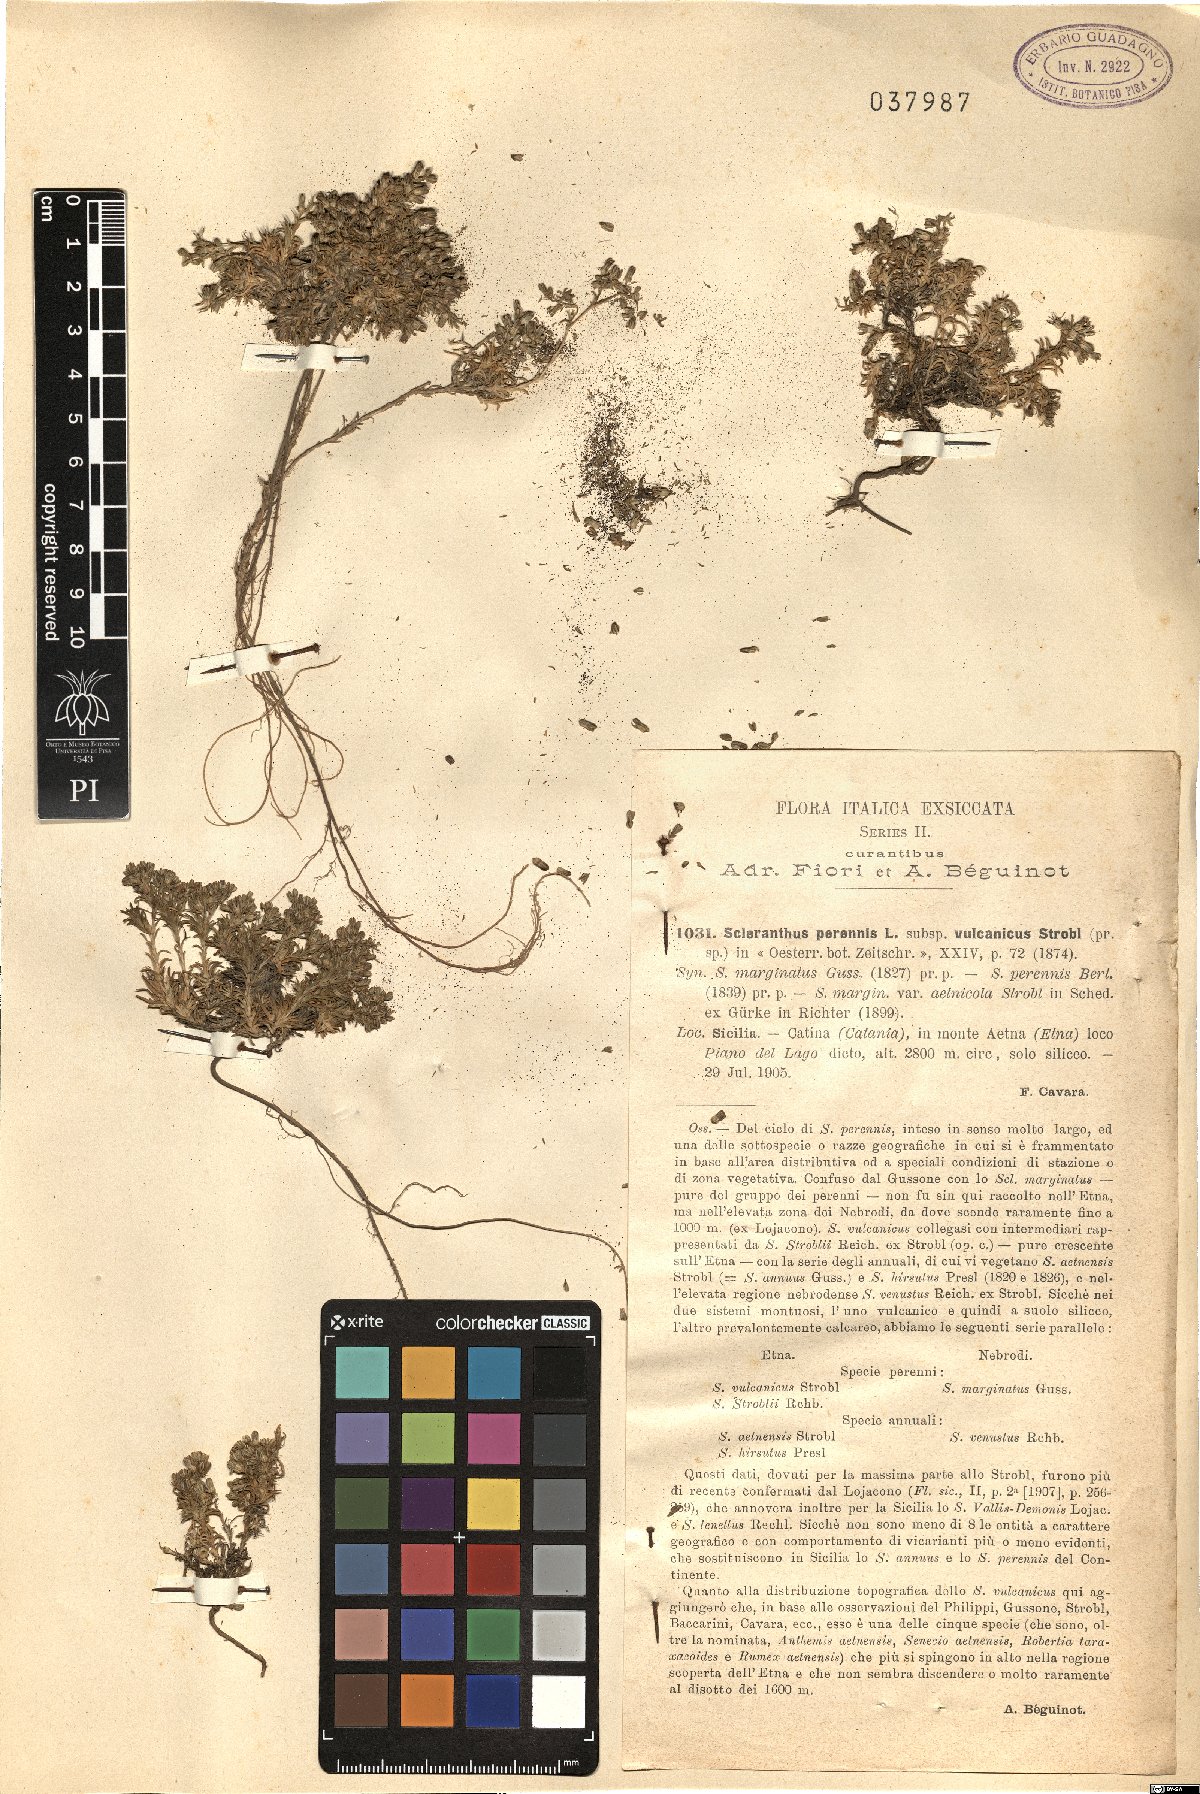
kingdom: Plantae
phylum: Tracheophyta
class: Magnoliopsida
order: Caryophyllales
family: Caryophyllaceae
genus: Scleranthus
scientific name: Scleranthus perennis
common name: Perennial knawel
